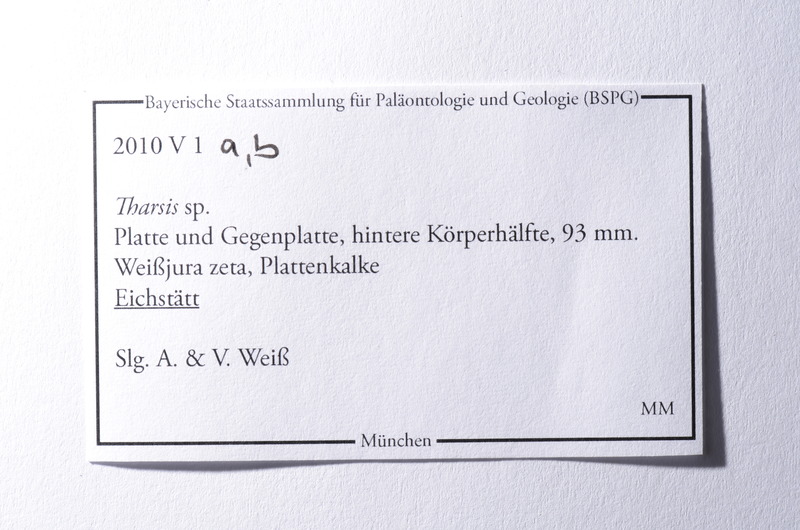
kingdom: Animalia
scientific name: Animalia
